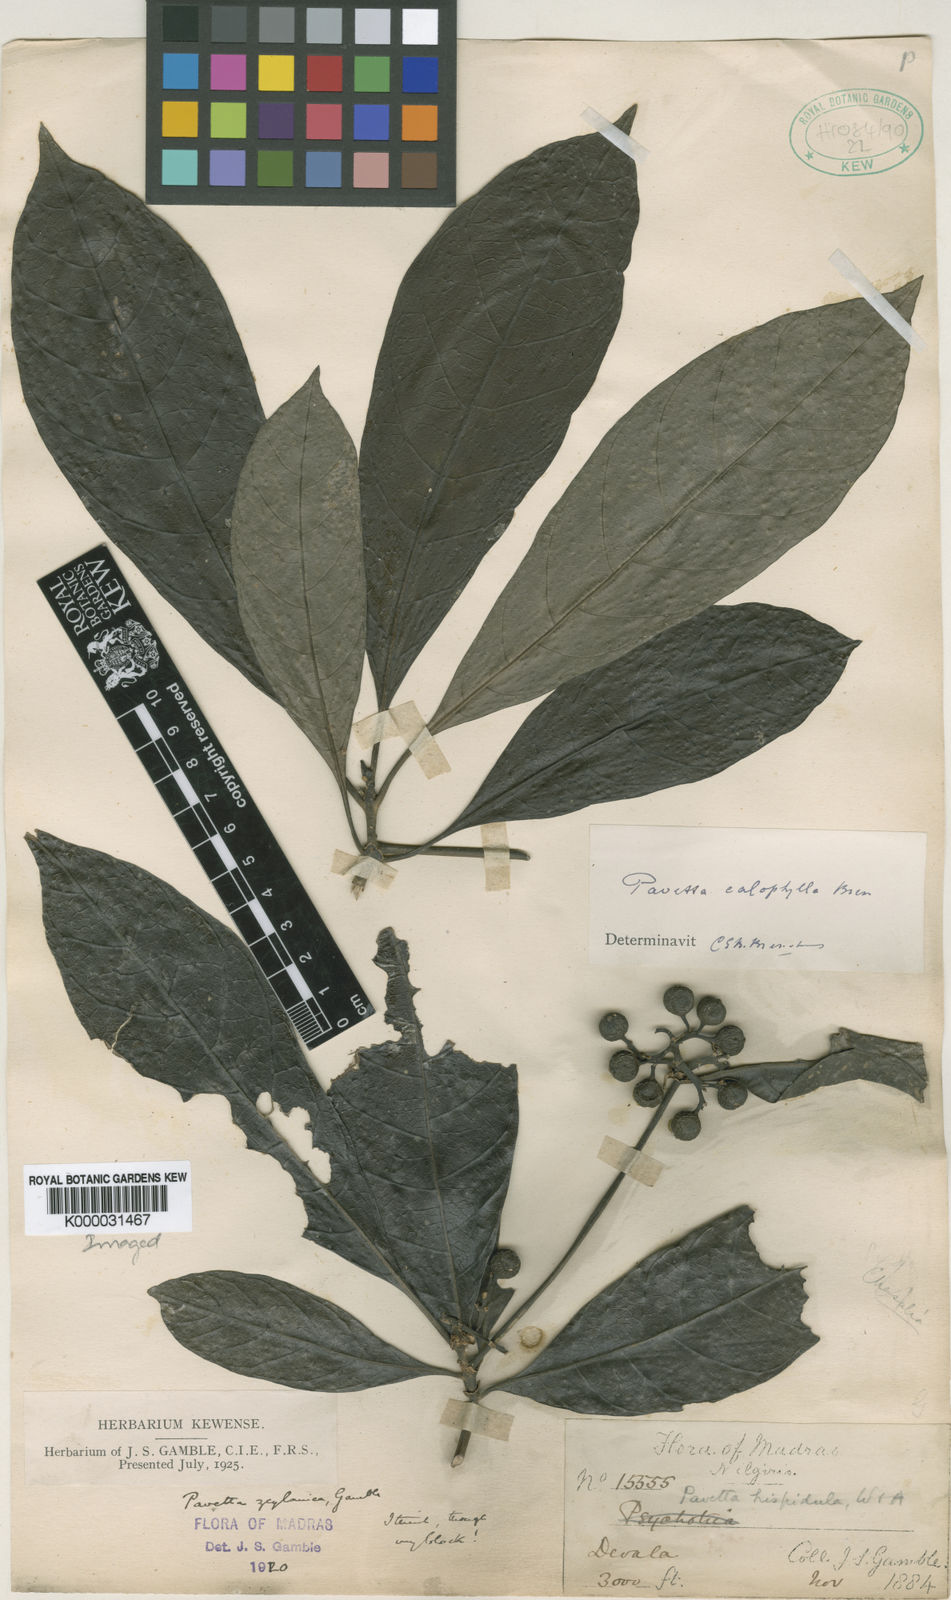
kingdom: Plantae
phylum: Tracheophyta
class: Magnoliopsida
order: Gentianales
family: Rubiaceae
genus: Pavetta
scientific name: Pavetta zeylanica
